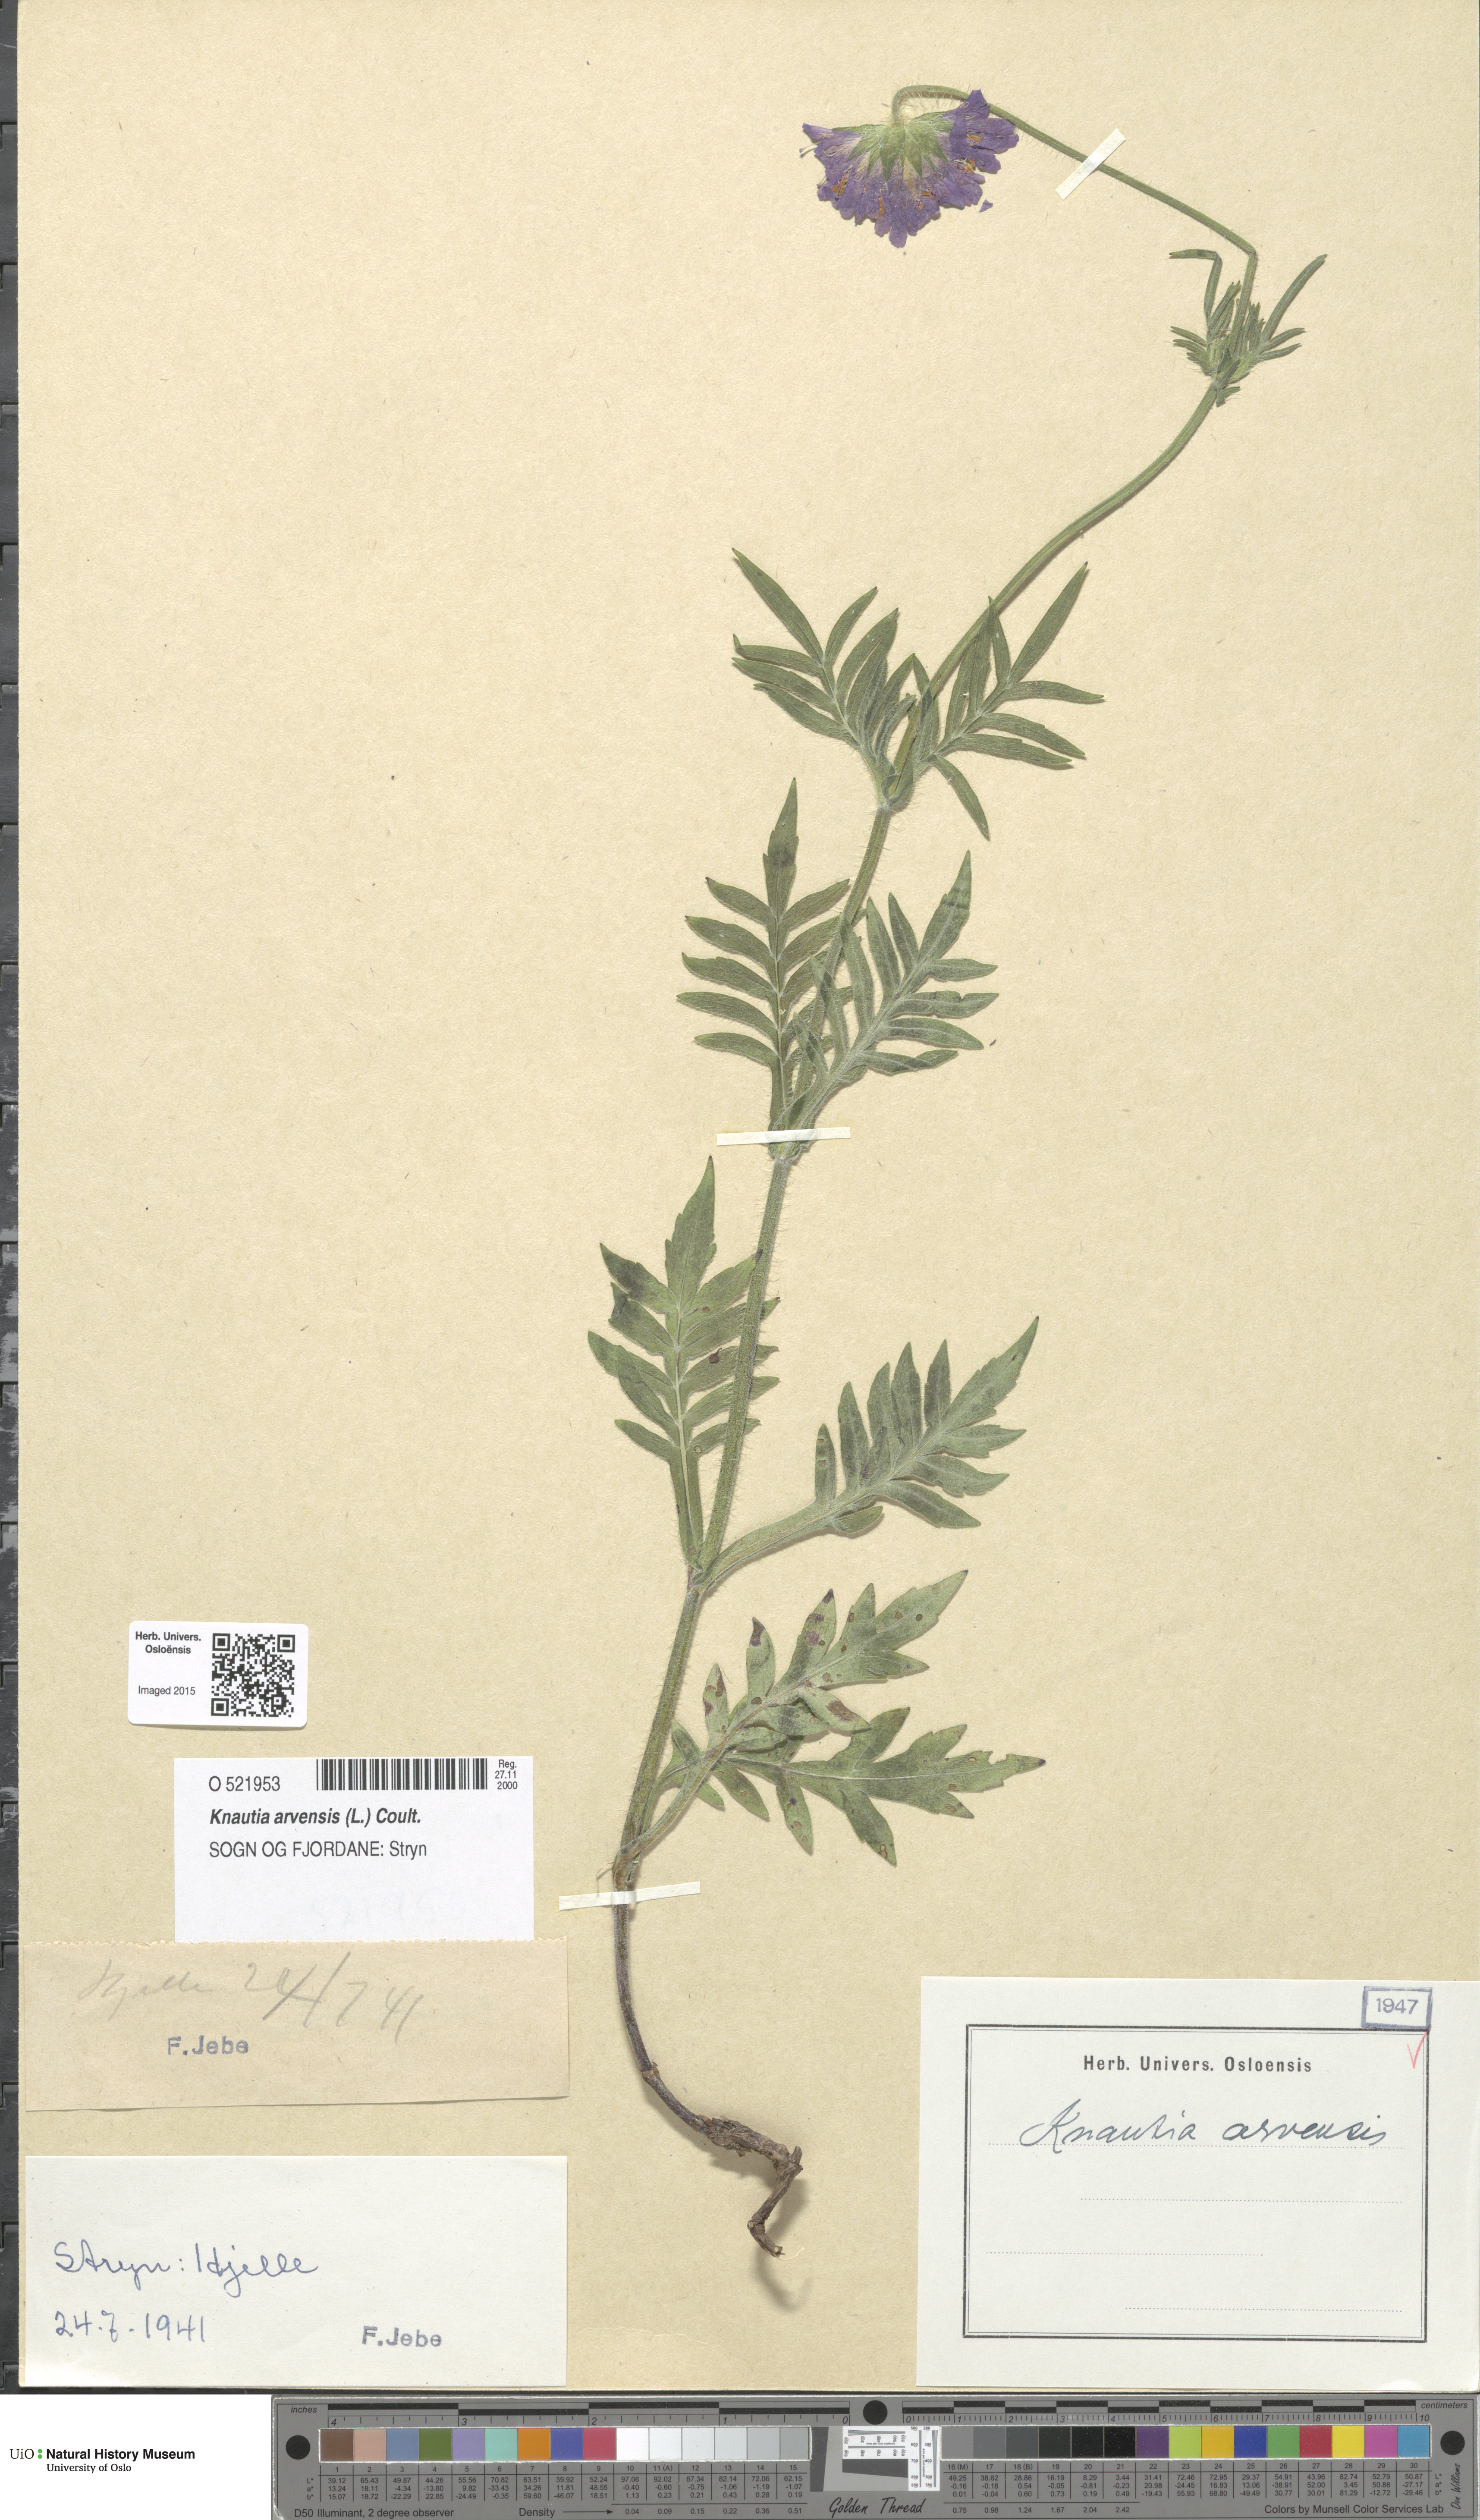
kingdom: Plantae
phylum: Tracheophyta
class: Magnoliopsida
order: Dipsacales
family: Caprifoliaceae
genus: Knautia
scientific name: Knautia arvensis
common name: Field scabiosa
